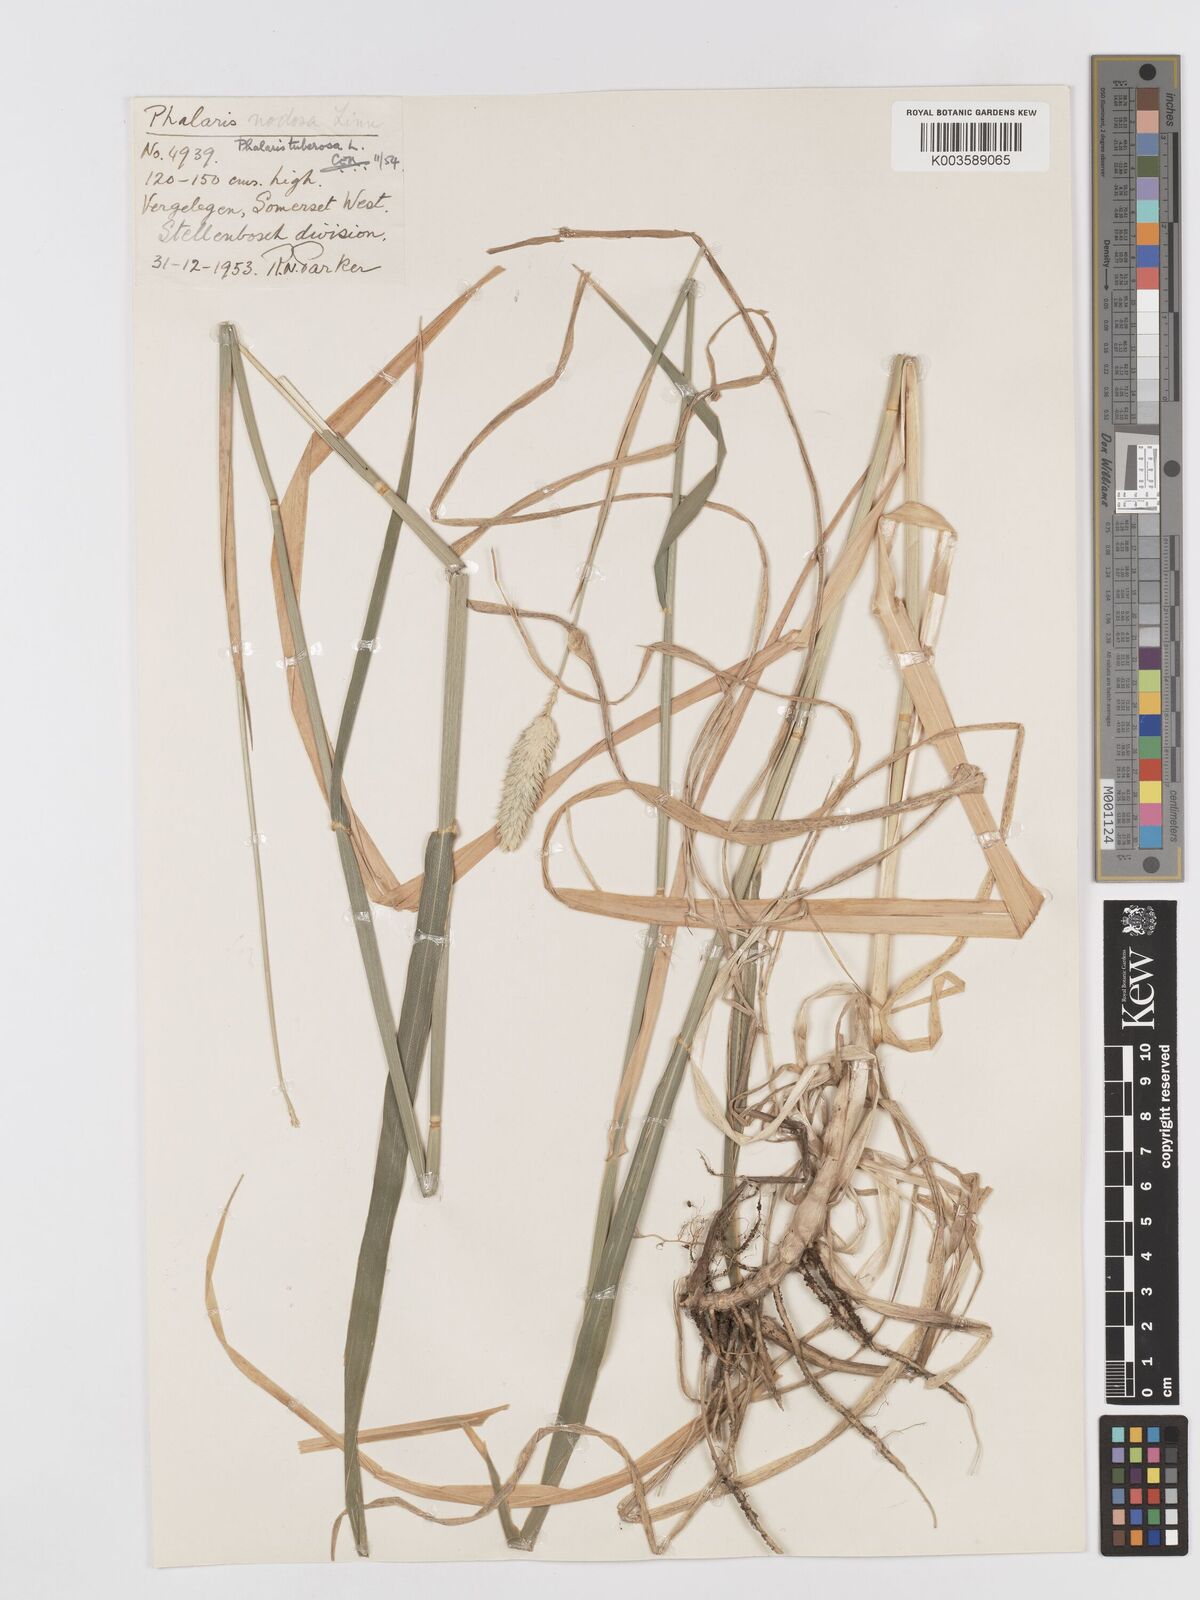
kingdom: Plantae
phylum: Tracheophyta
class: Liliopsida
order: Poales
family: Poaceae
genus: Phalaris
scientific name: Phalaris aquatica
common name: Bulbous canary-grass
